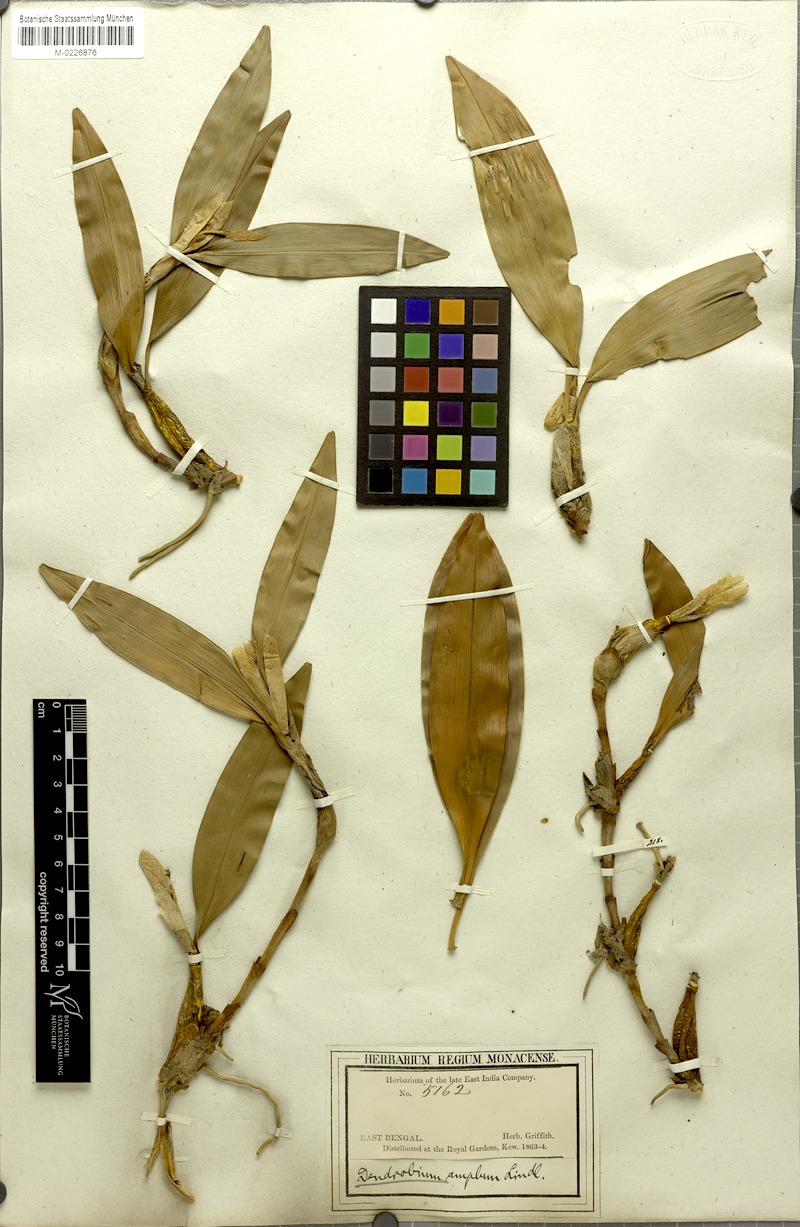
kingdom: Plantae
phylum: Tracheophyta
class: Liliopsida
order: Asparagales
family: Orchidaceae
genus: Dendrobium
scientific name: Dendrobium amplum
